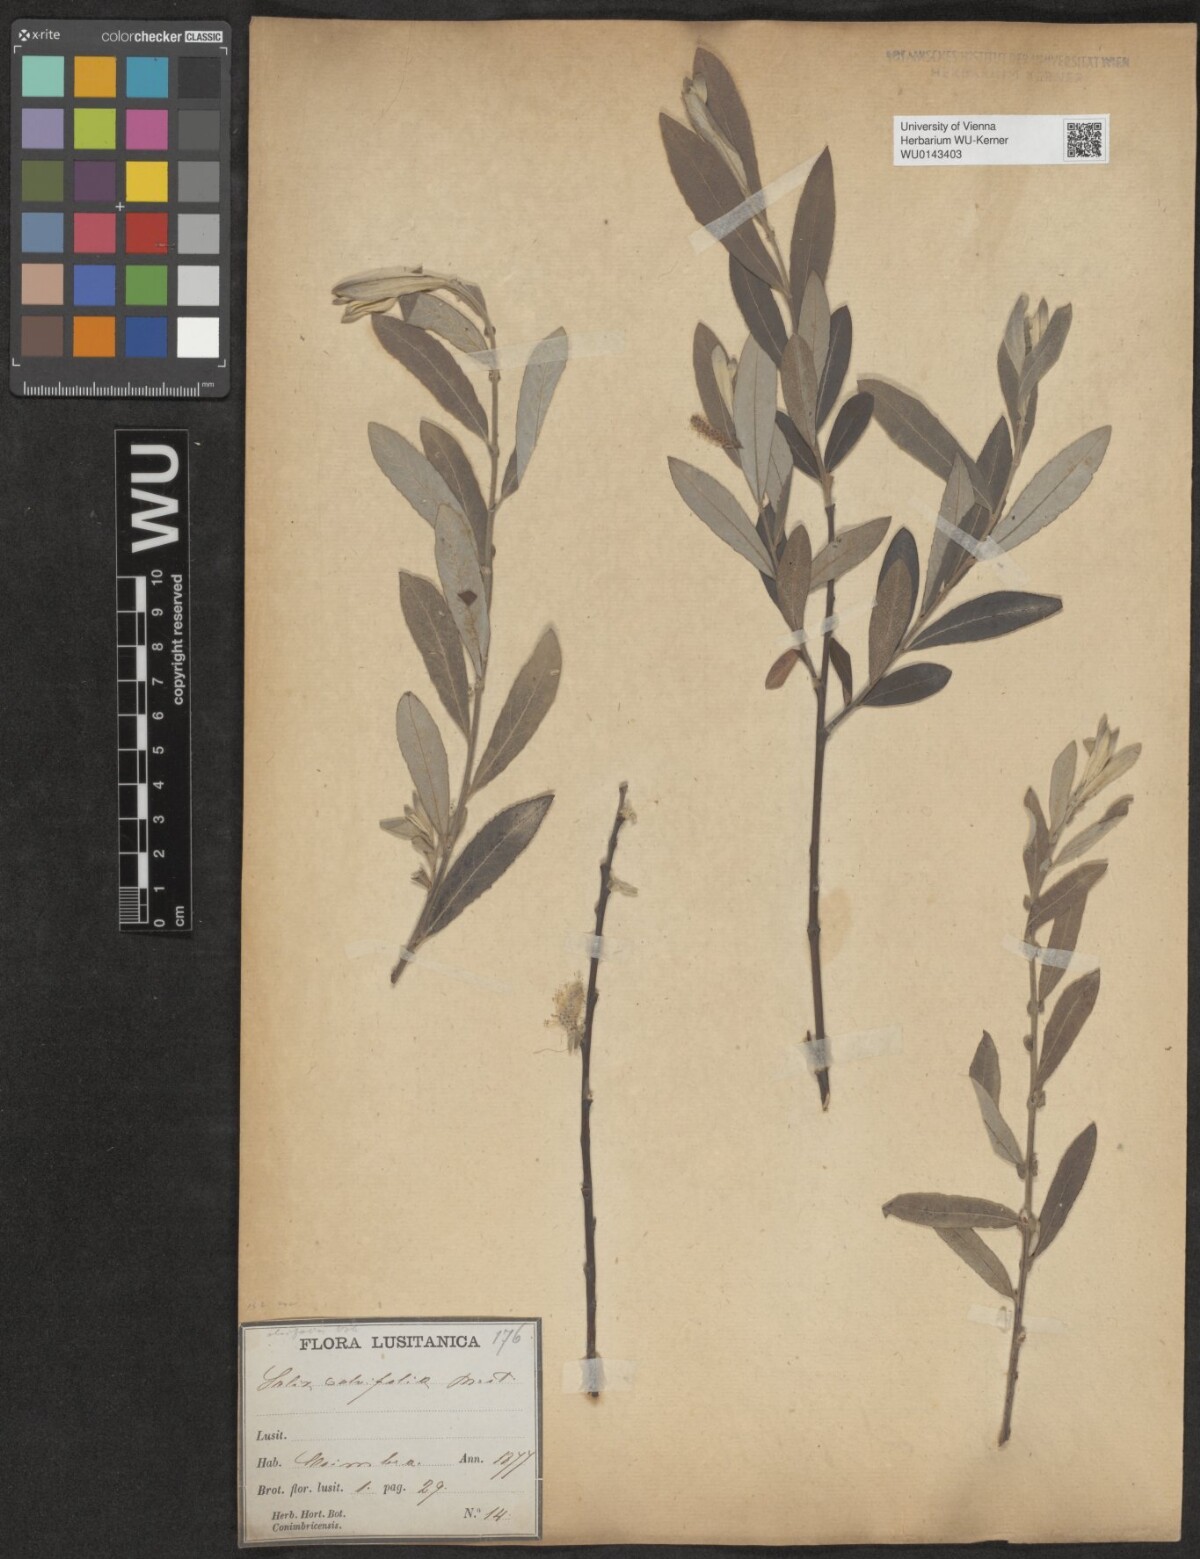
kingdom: Plantae
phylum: Tracheophyta
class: Magnoliopsida
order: Malpighiales
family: Salicaceae
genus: Salix
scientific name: Salix salviifolia
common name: Salvia-leaf willow
